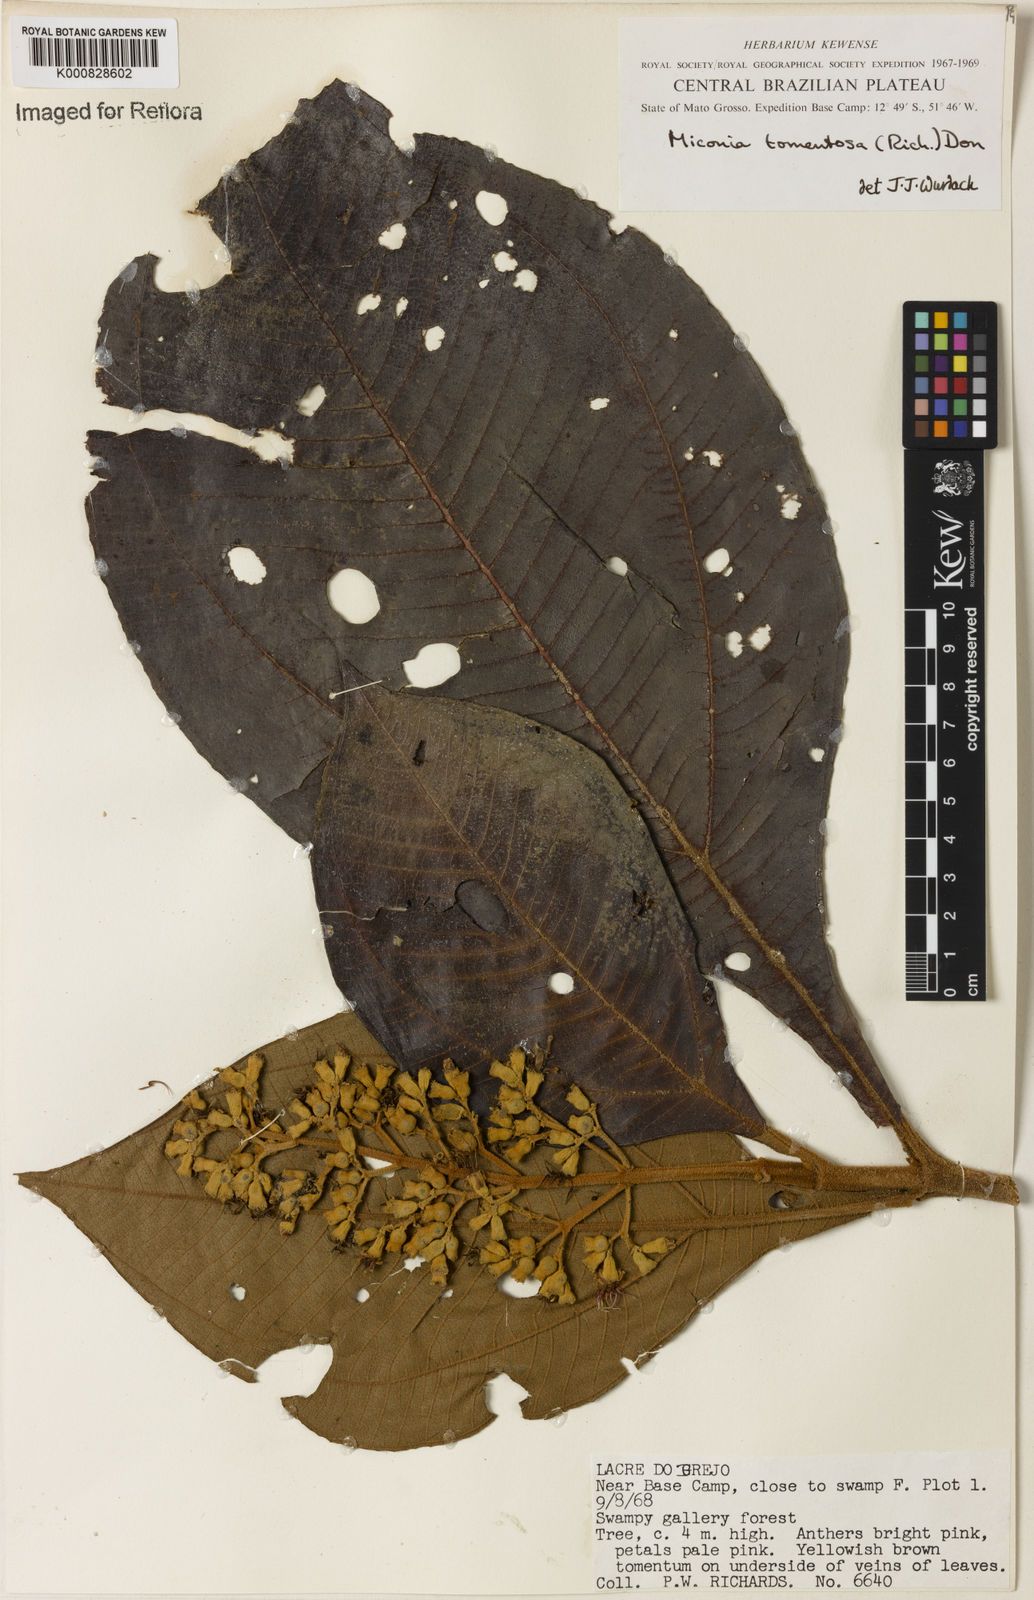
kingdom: Plantae
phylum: Tracheophyta
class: Magnoliopsida
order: Myrtales
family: Melastomataceae
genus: Miconia
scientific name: Miconia tomentosa
